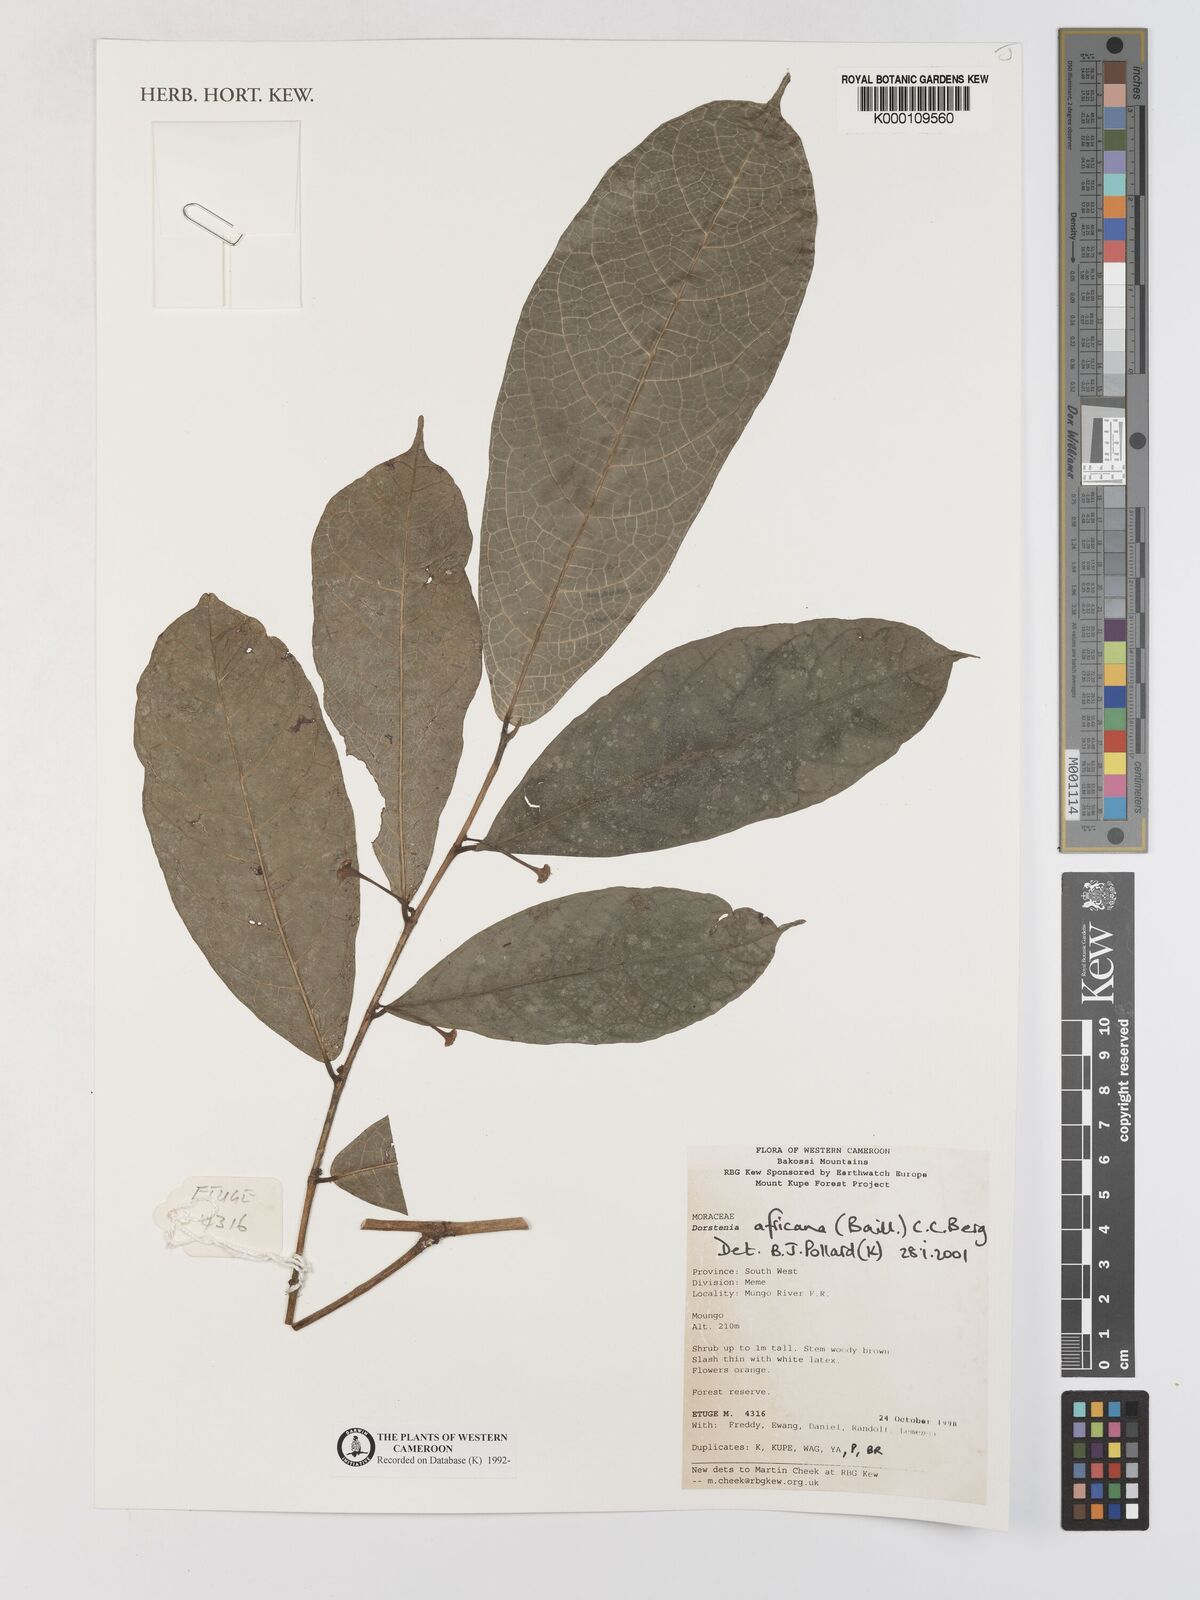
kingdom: Plantae
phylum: Tracheophyta
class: Magnoliopsida
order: Rosales
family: Moraceae
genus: Dorstenia
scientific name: Dorstenia africana
